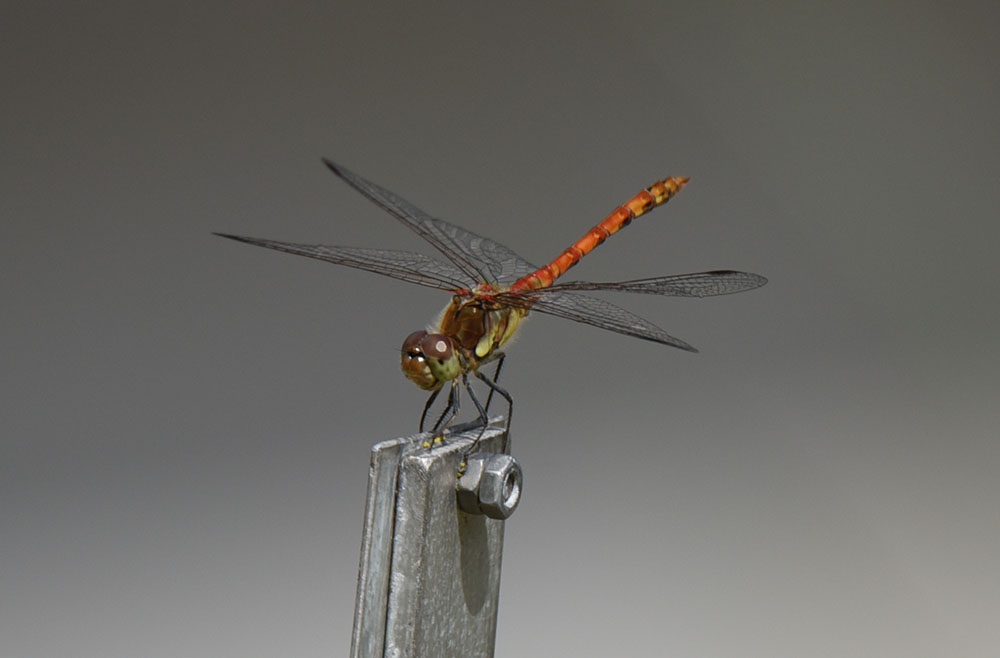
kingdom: Animalia
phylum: Arthropoda
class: Insecta
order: Odonata
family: Libellulidae
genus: Sympetrum
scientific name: Sympetrum striolatum
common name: Common darter
